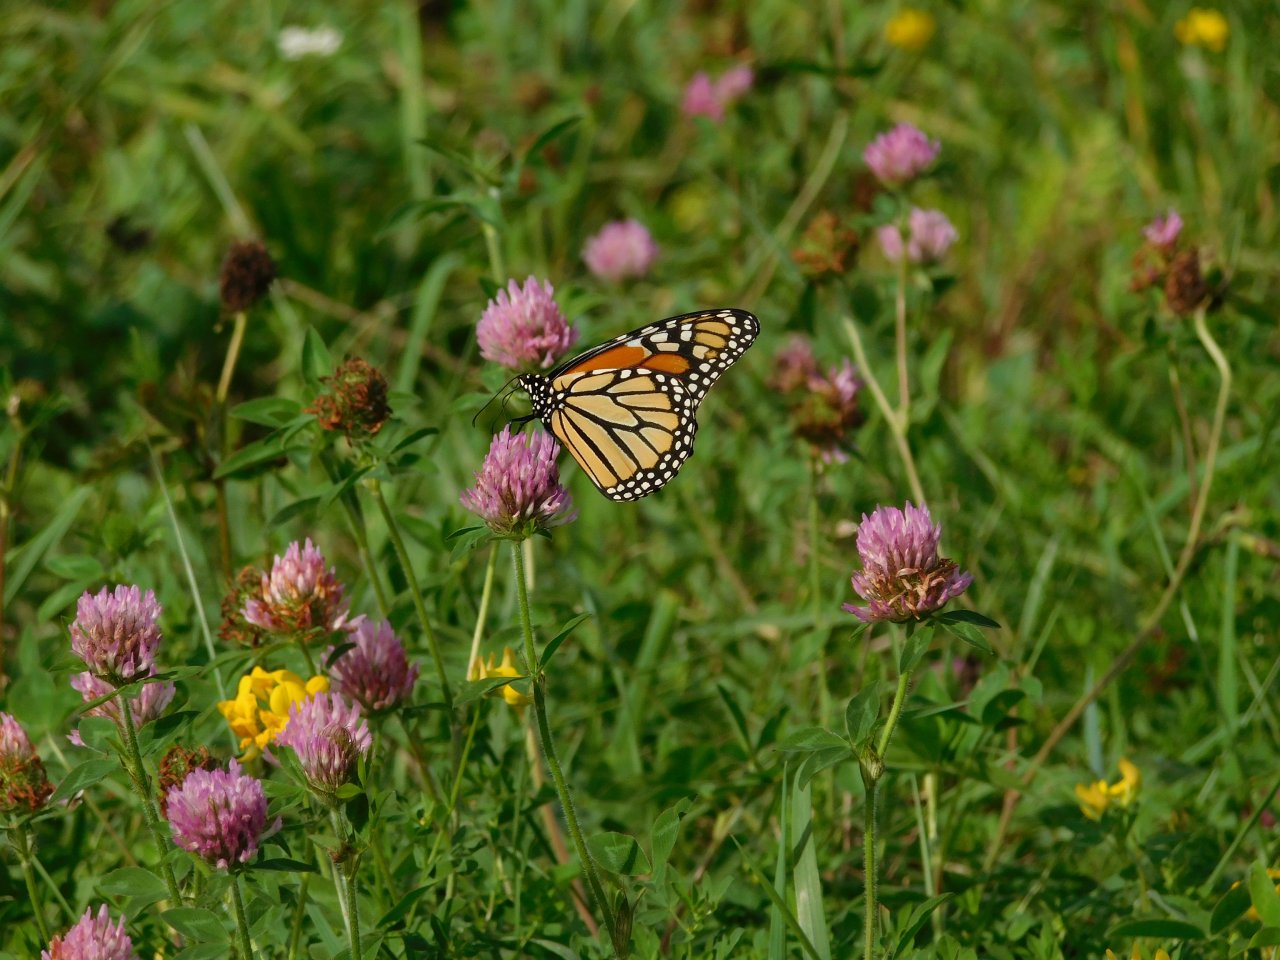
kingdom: Animalia
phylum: Arthropoda
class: Insecta
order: Lepidoptera
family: Nymphalidae
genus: Danaus
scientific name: Danaus plexippus
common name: Monarch
